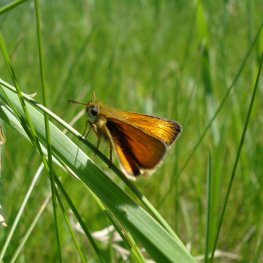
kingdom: Animalia
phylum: Arthropoda
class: Insecta
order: Lepidoptera
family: Hesperiidae
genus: Thymelicus
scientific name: Thymelicus lineola
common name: European Skipper
